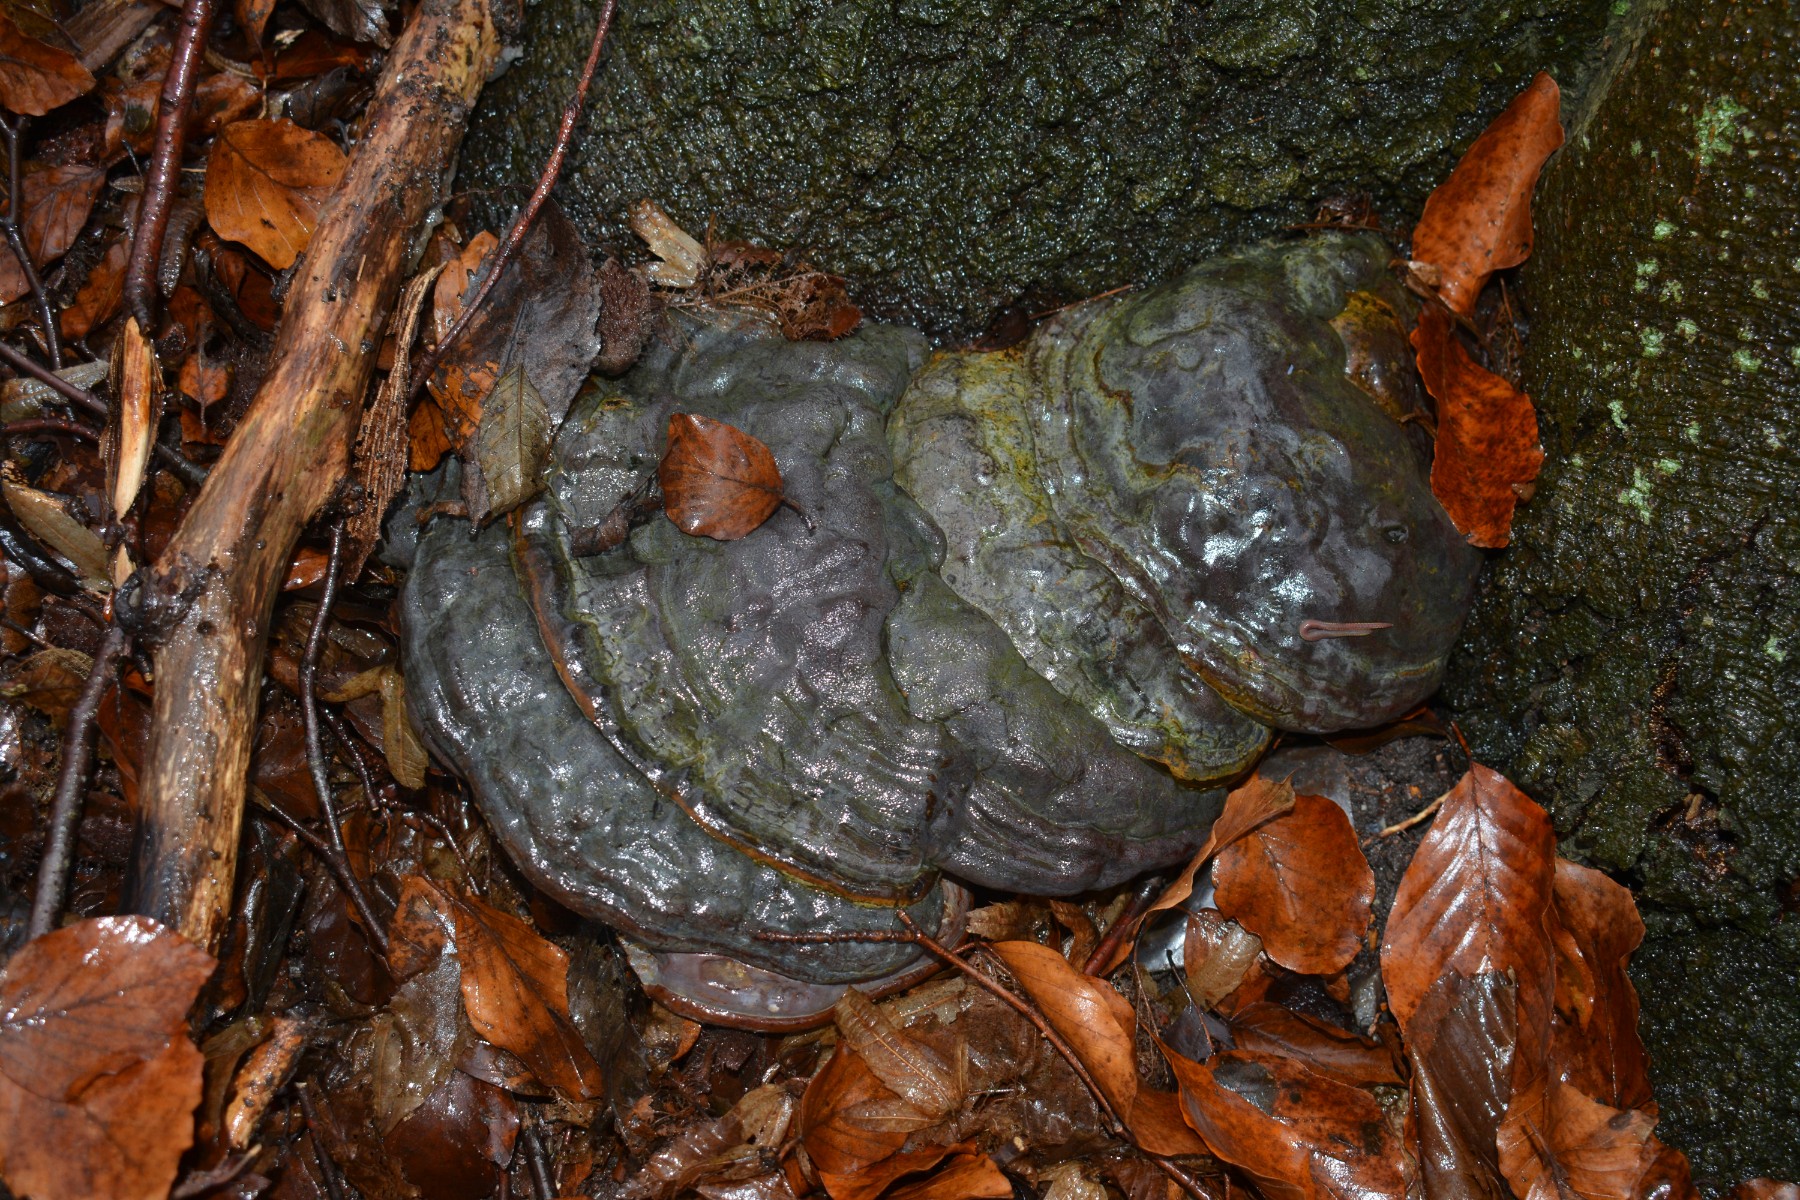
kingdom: Fungi
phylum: Basidiomycota
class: Agaricomycetes
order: Polyporales
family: Polyporaceae
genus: Ganoderma
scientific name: Ganoderma pfeifferi
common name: kobberrød lakporesvamp
